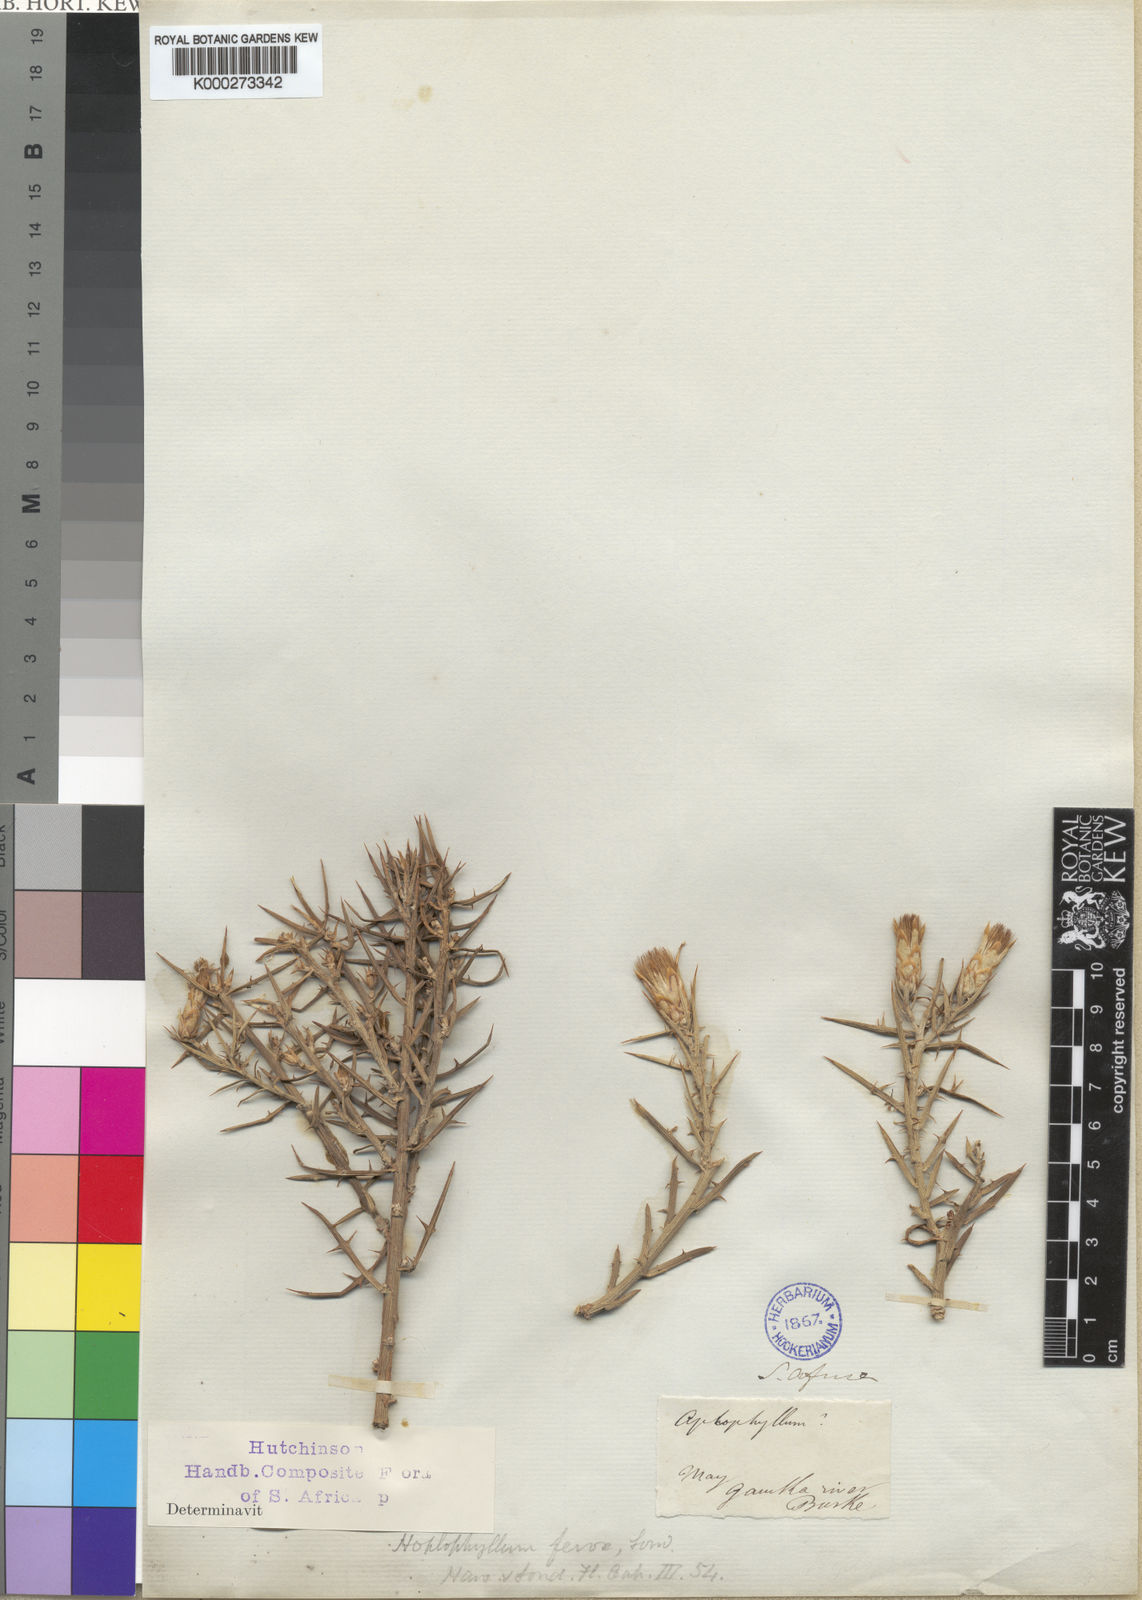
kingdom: Plantae
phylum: Tracheophyta
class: Magnoliopsida
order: Asterales
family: Asteraceae
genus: Hoplophyllum
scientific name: Hoplophyllum ferox
